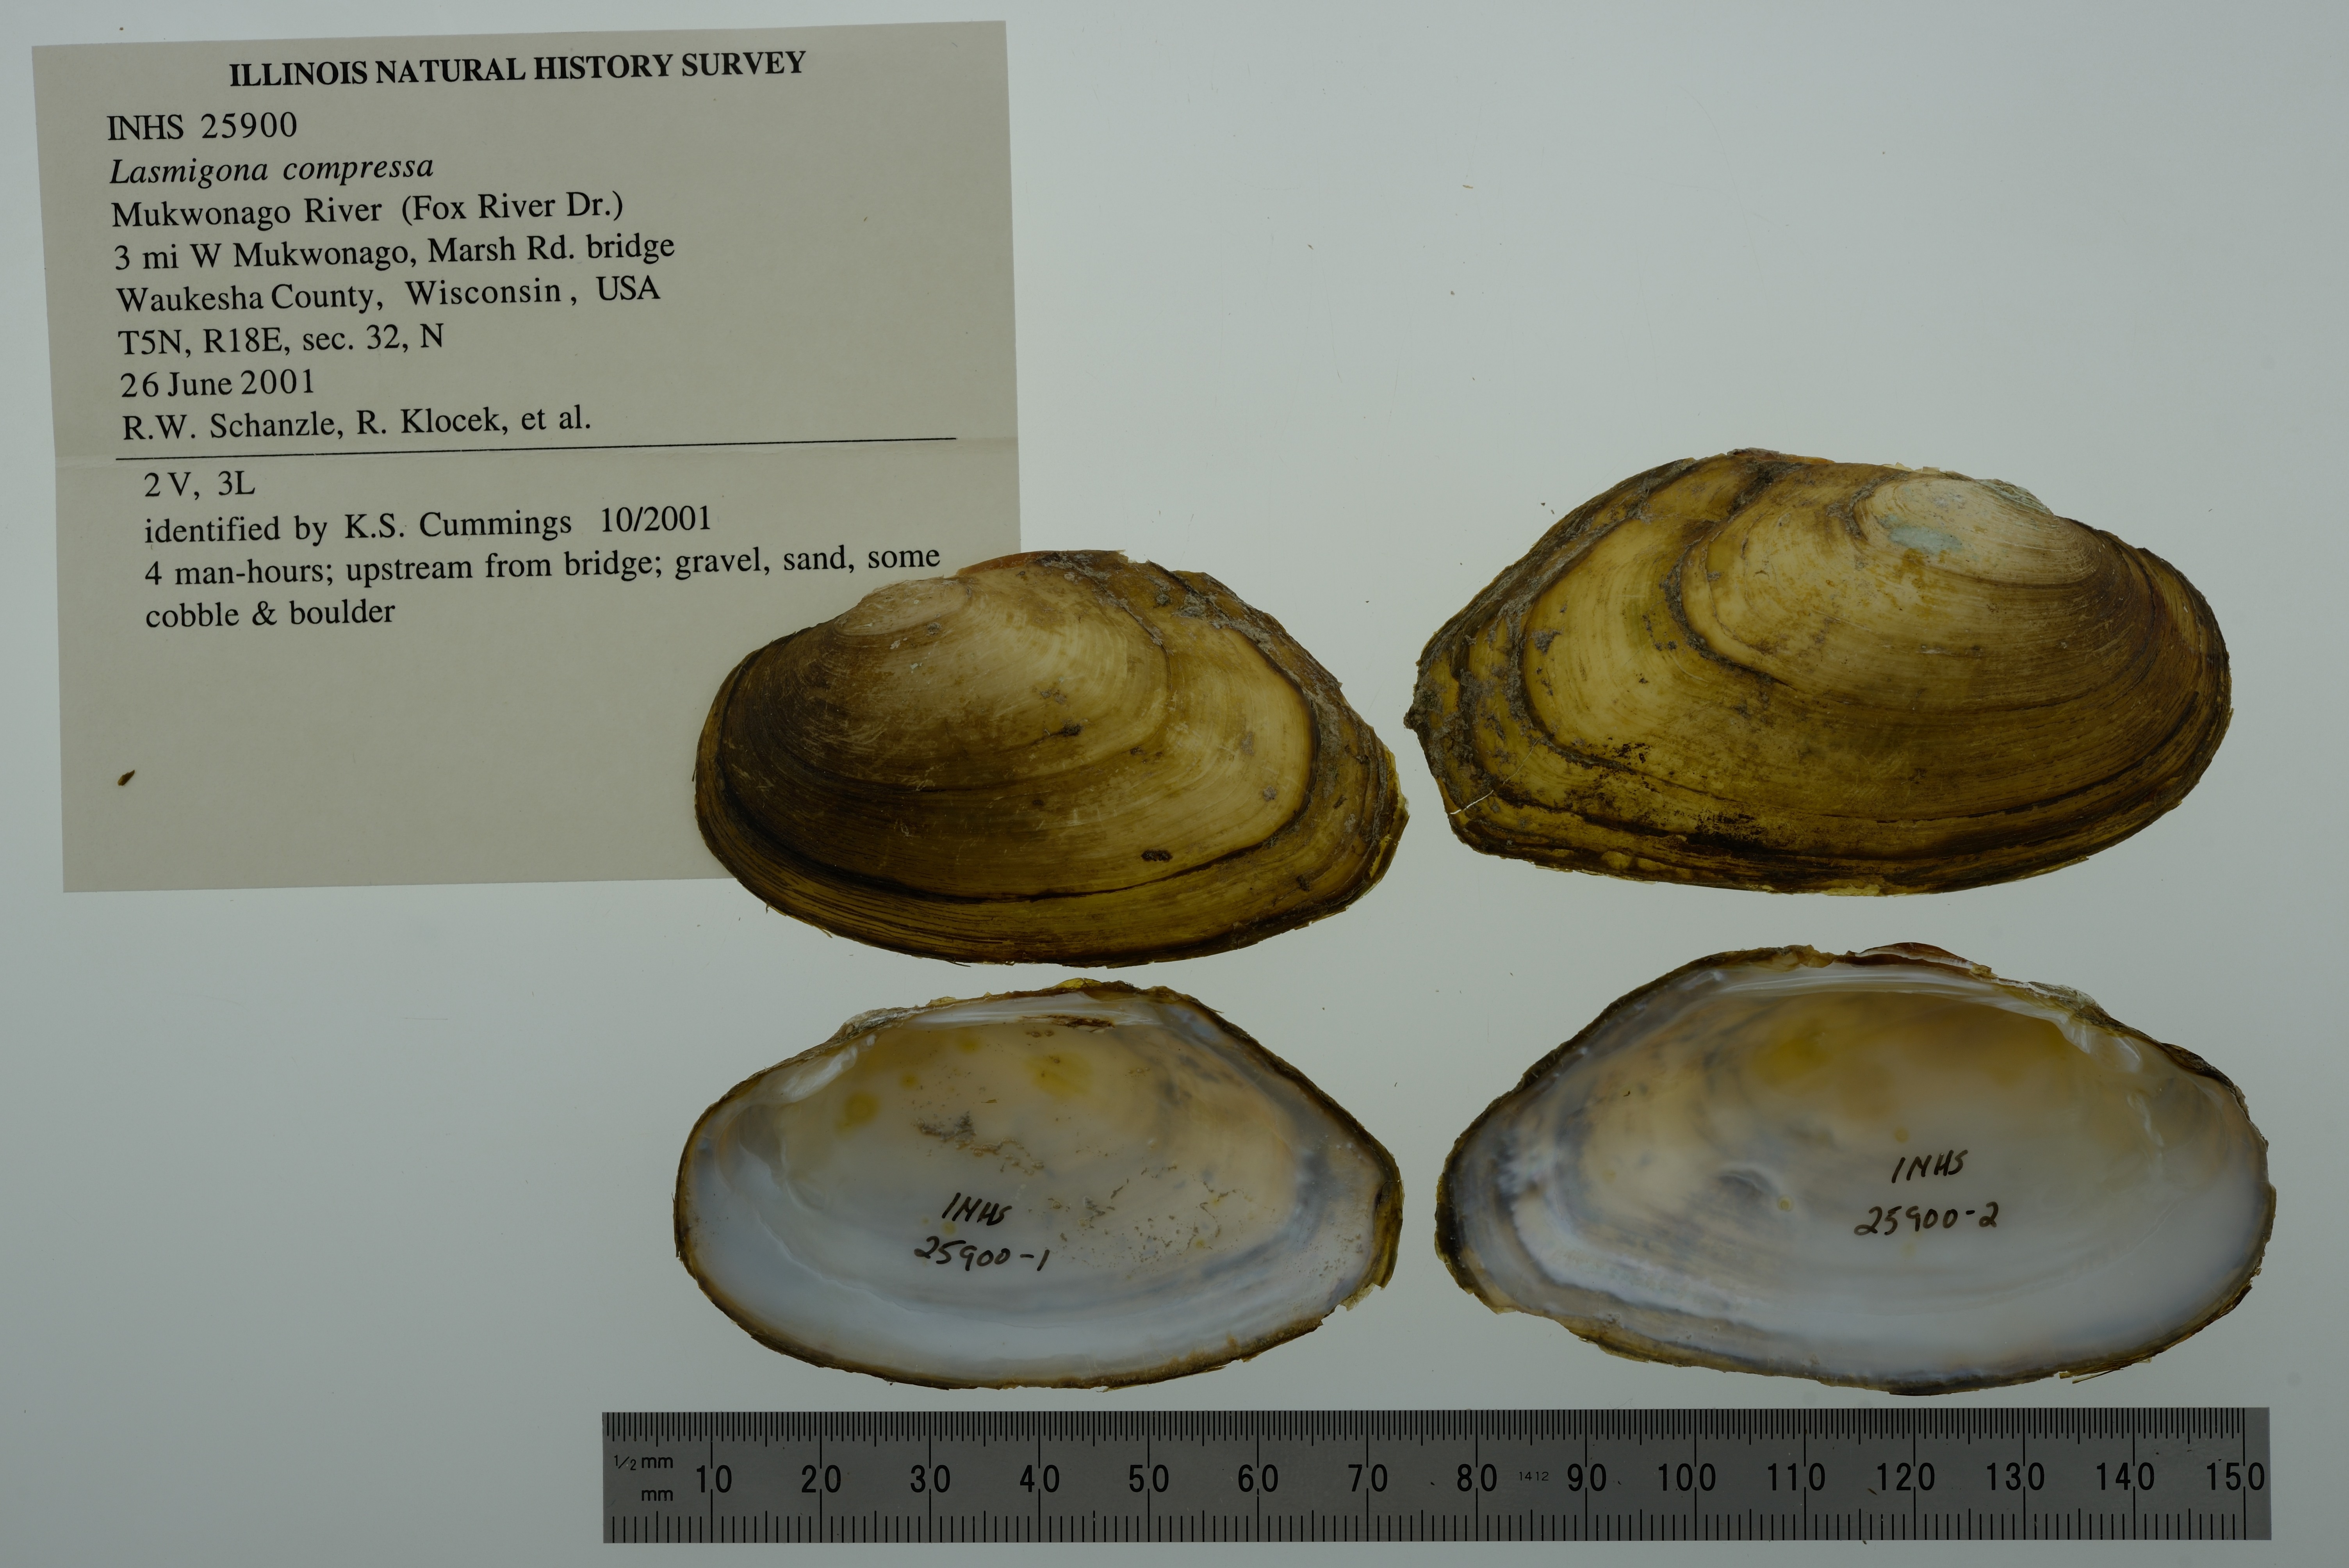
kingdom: Animalia
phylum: Mollusca
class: Bivalvia
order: Unionida
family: Unionidae
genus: Lasmigona
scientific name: Lasmigona compressa
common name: Creek heelsplitter
